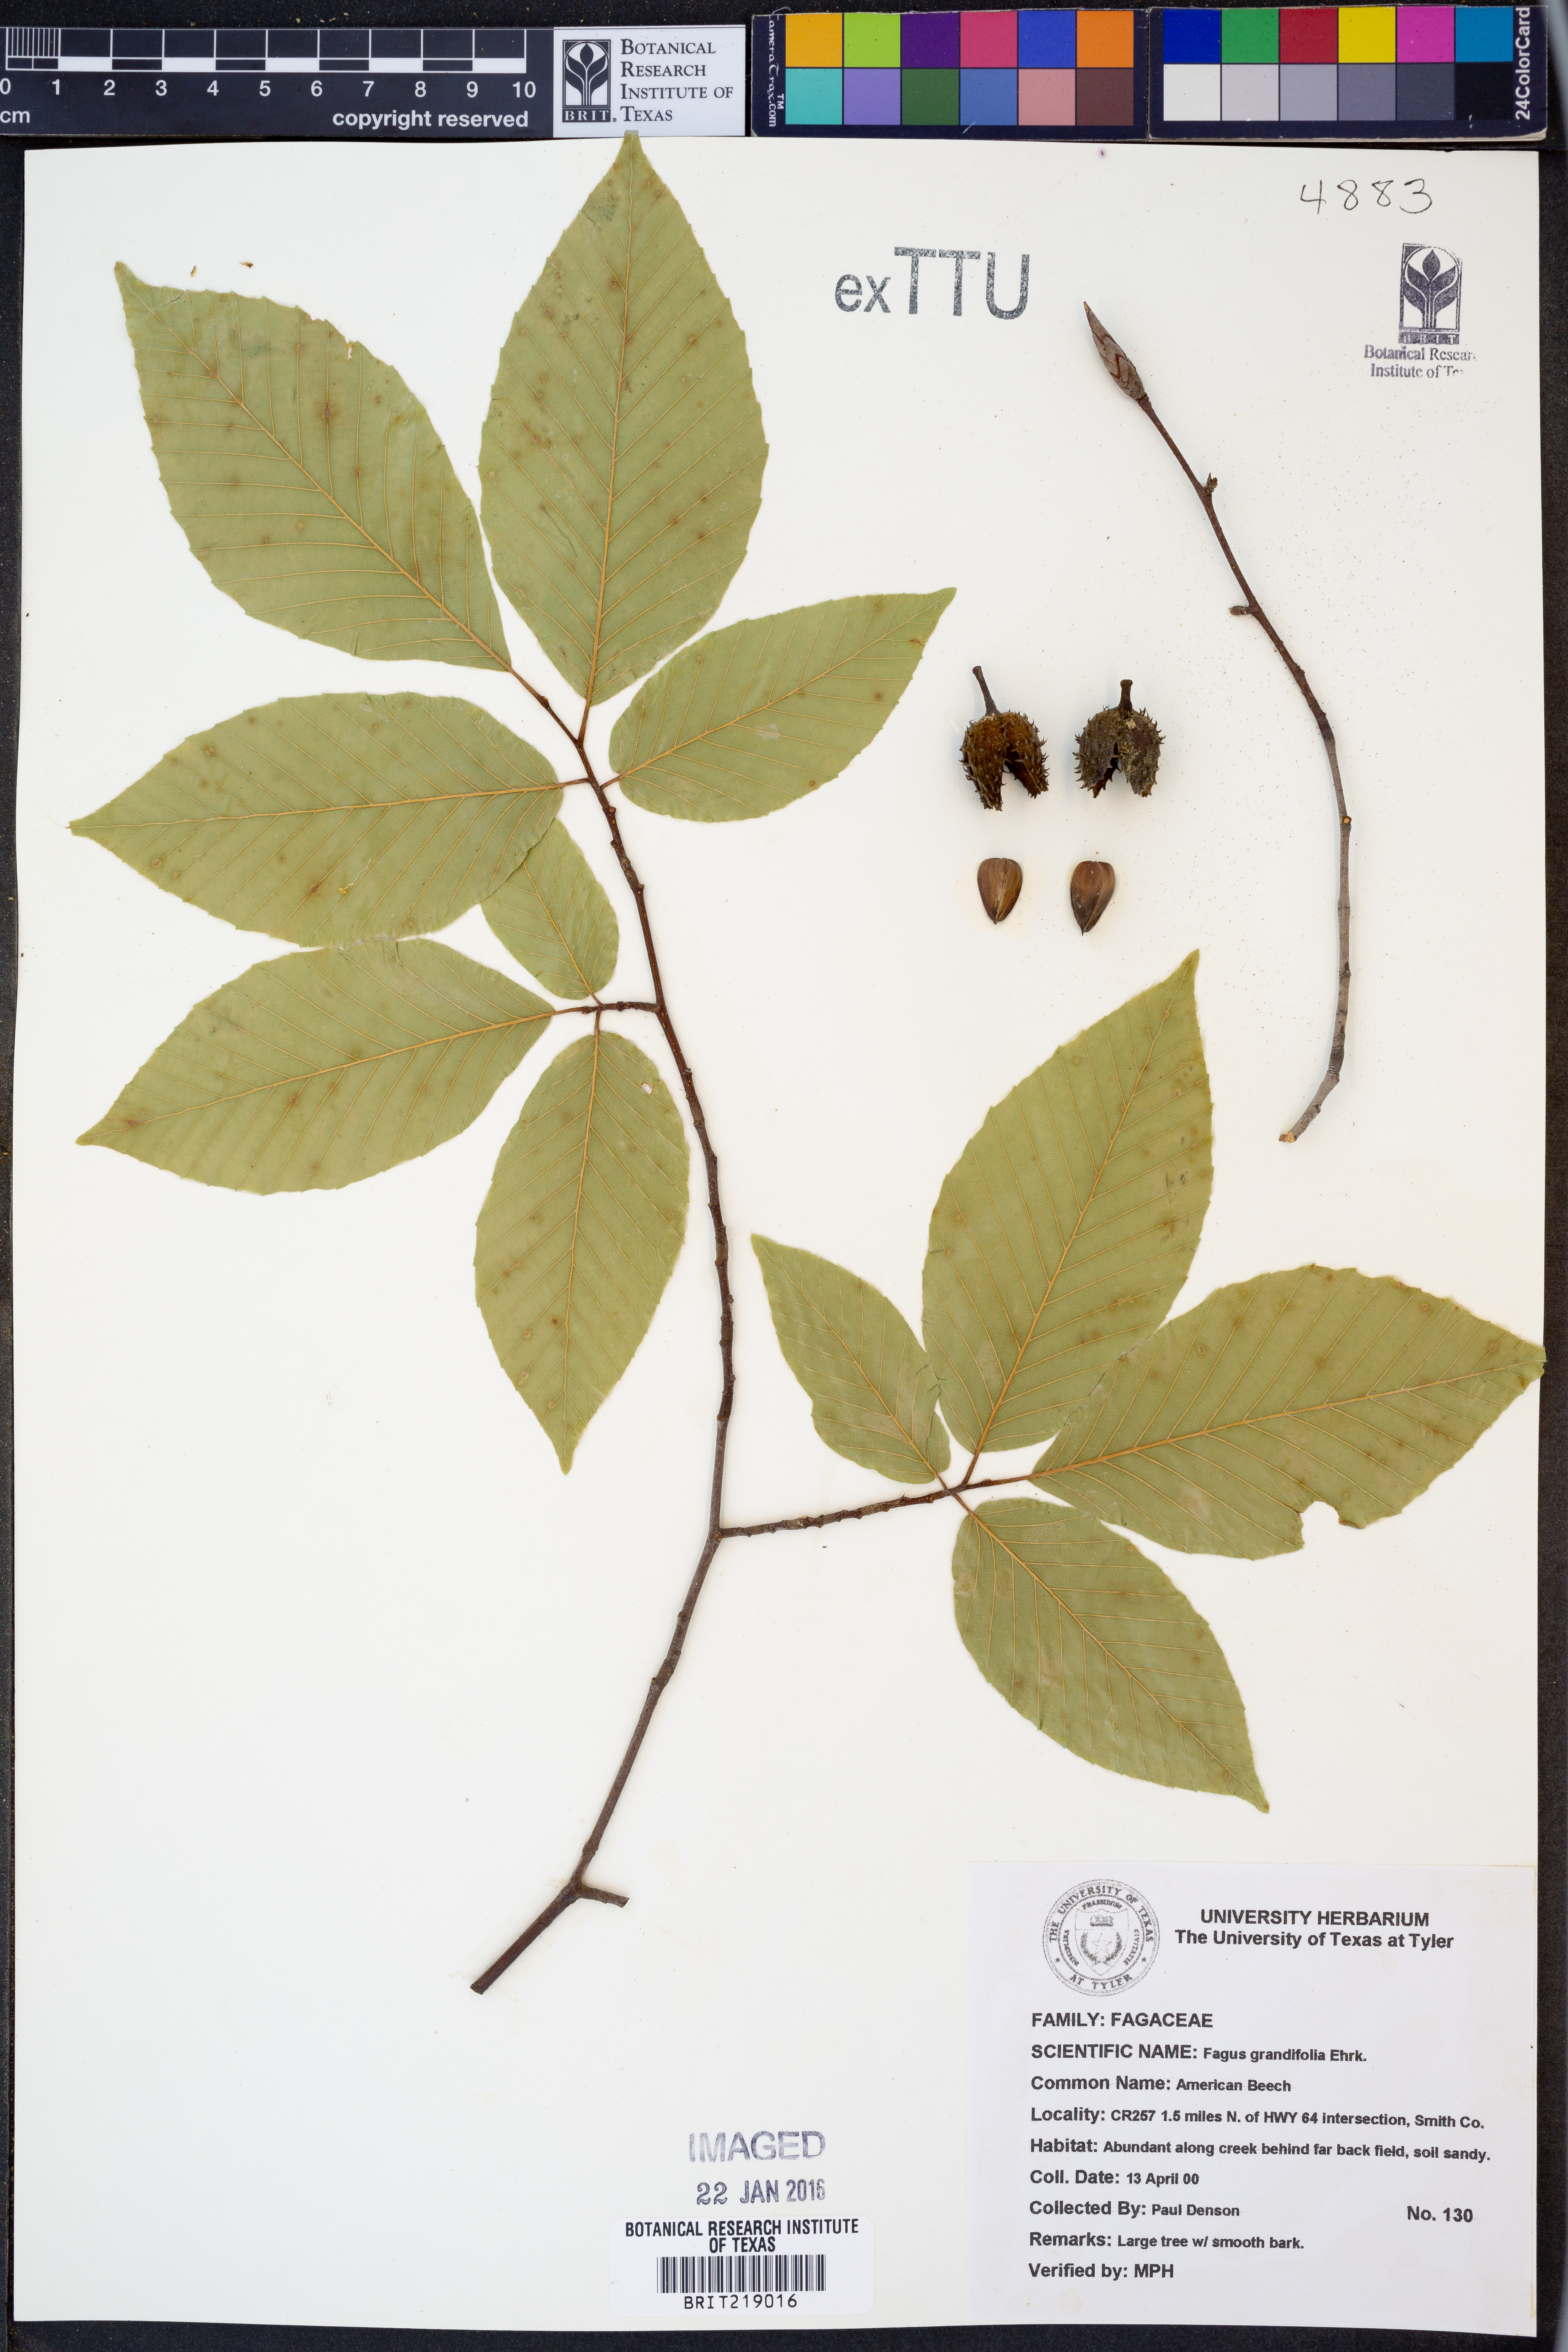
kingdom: Plantae
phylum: Tracheophyta
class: Magnoliopsida
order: Fagales
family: Fagaceae
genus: Fagus
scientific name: Fagus grandifolia
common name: American beech
